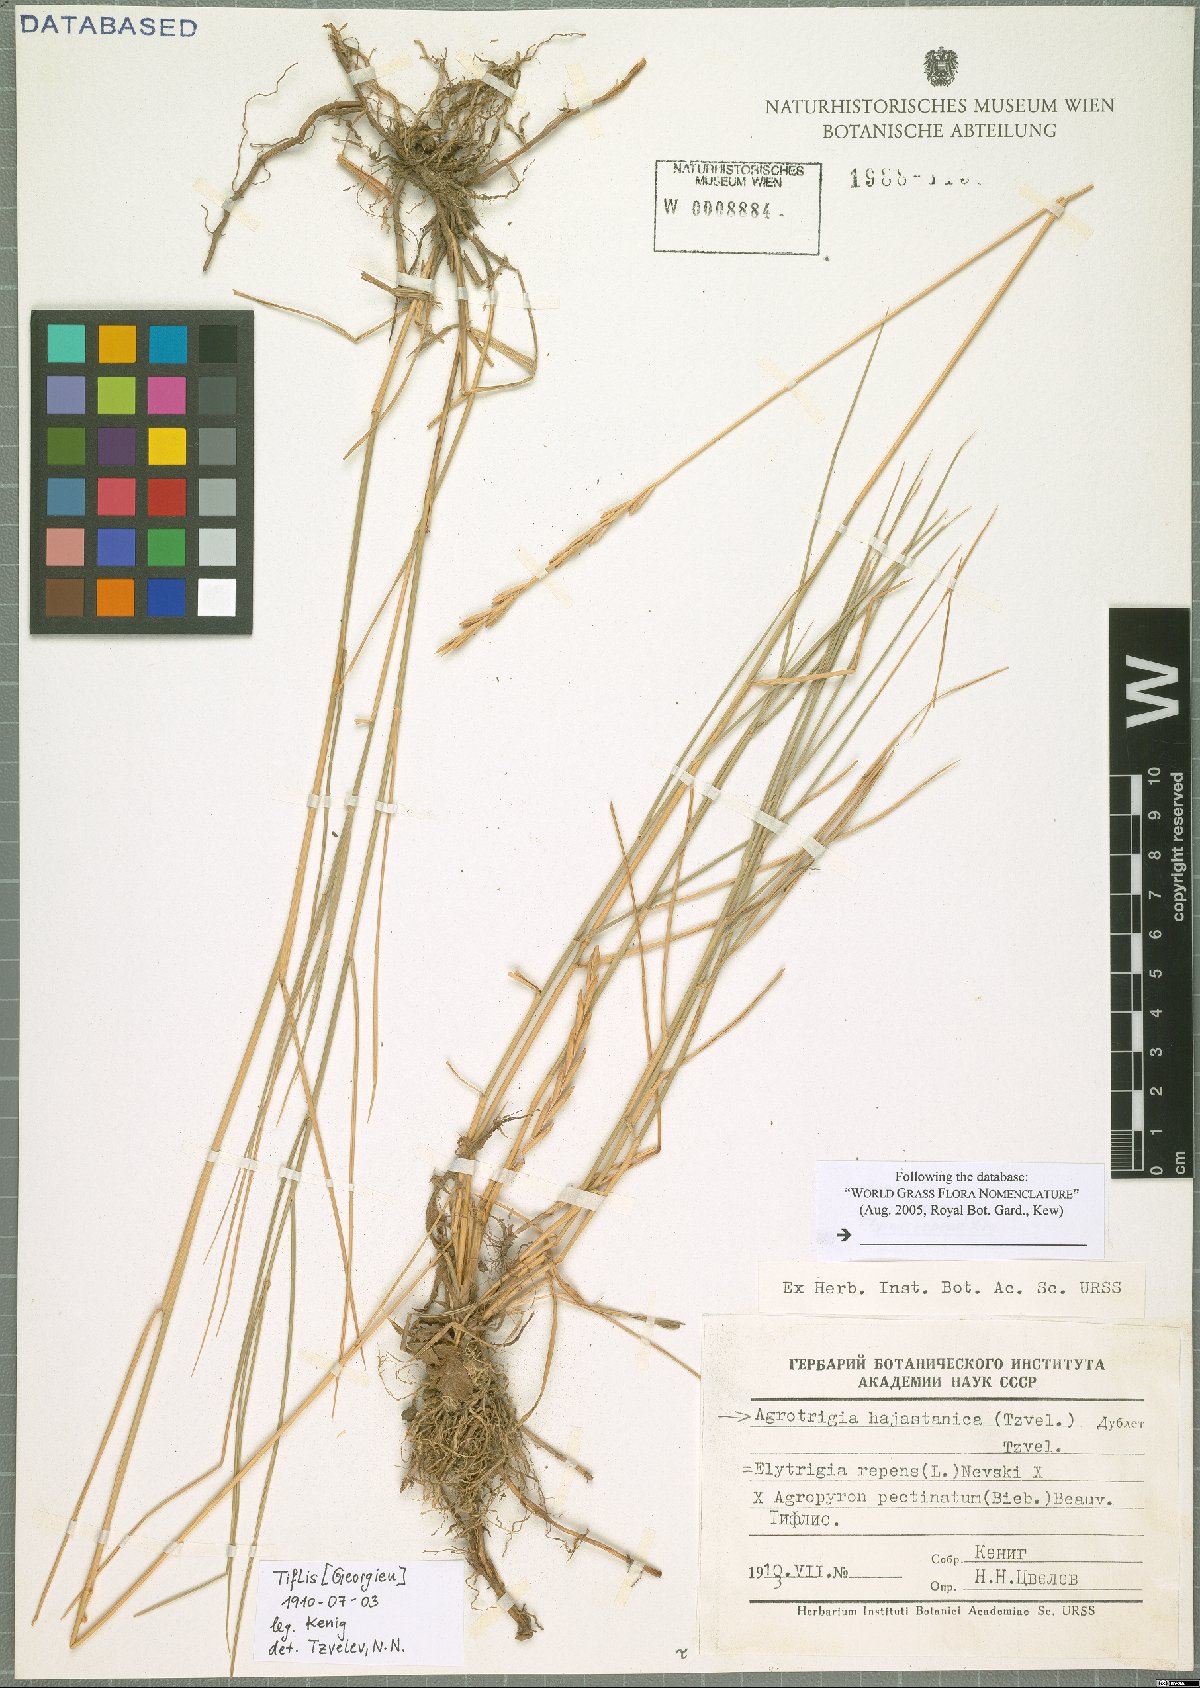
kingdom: Plantae
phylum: Tracheophyta
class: Liliopsida
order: Poales
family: Poaceae
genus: Agroelymus
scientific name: Agroelymus Agrotrigia hajastanica
